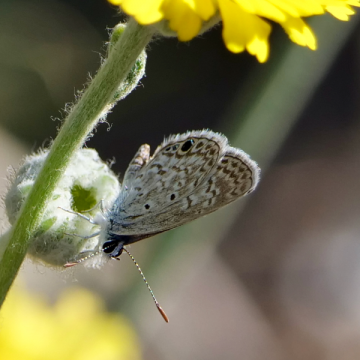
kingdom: Animalia
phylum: Arthropoda
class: Insecta
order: Lepidoptera
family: Lycaenidae
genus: Hemiargus
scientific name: Hemiargus ceraunus
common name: Ceraunus Blue
